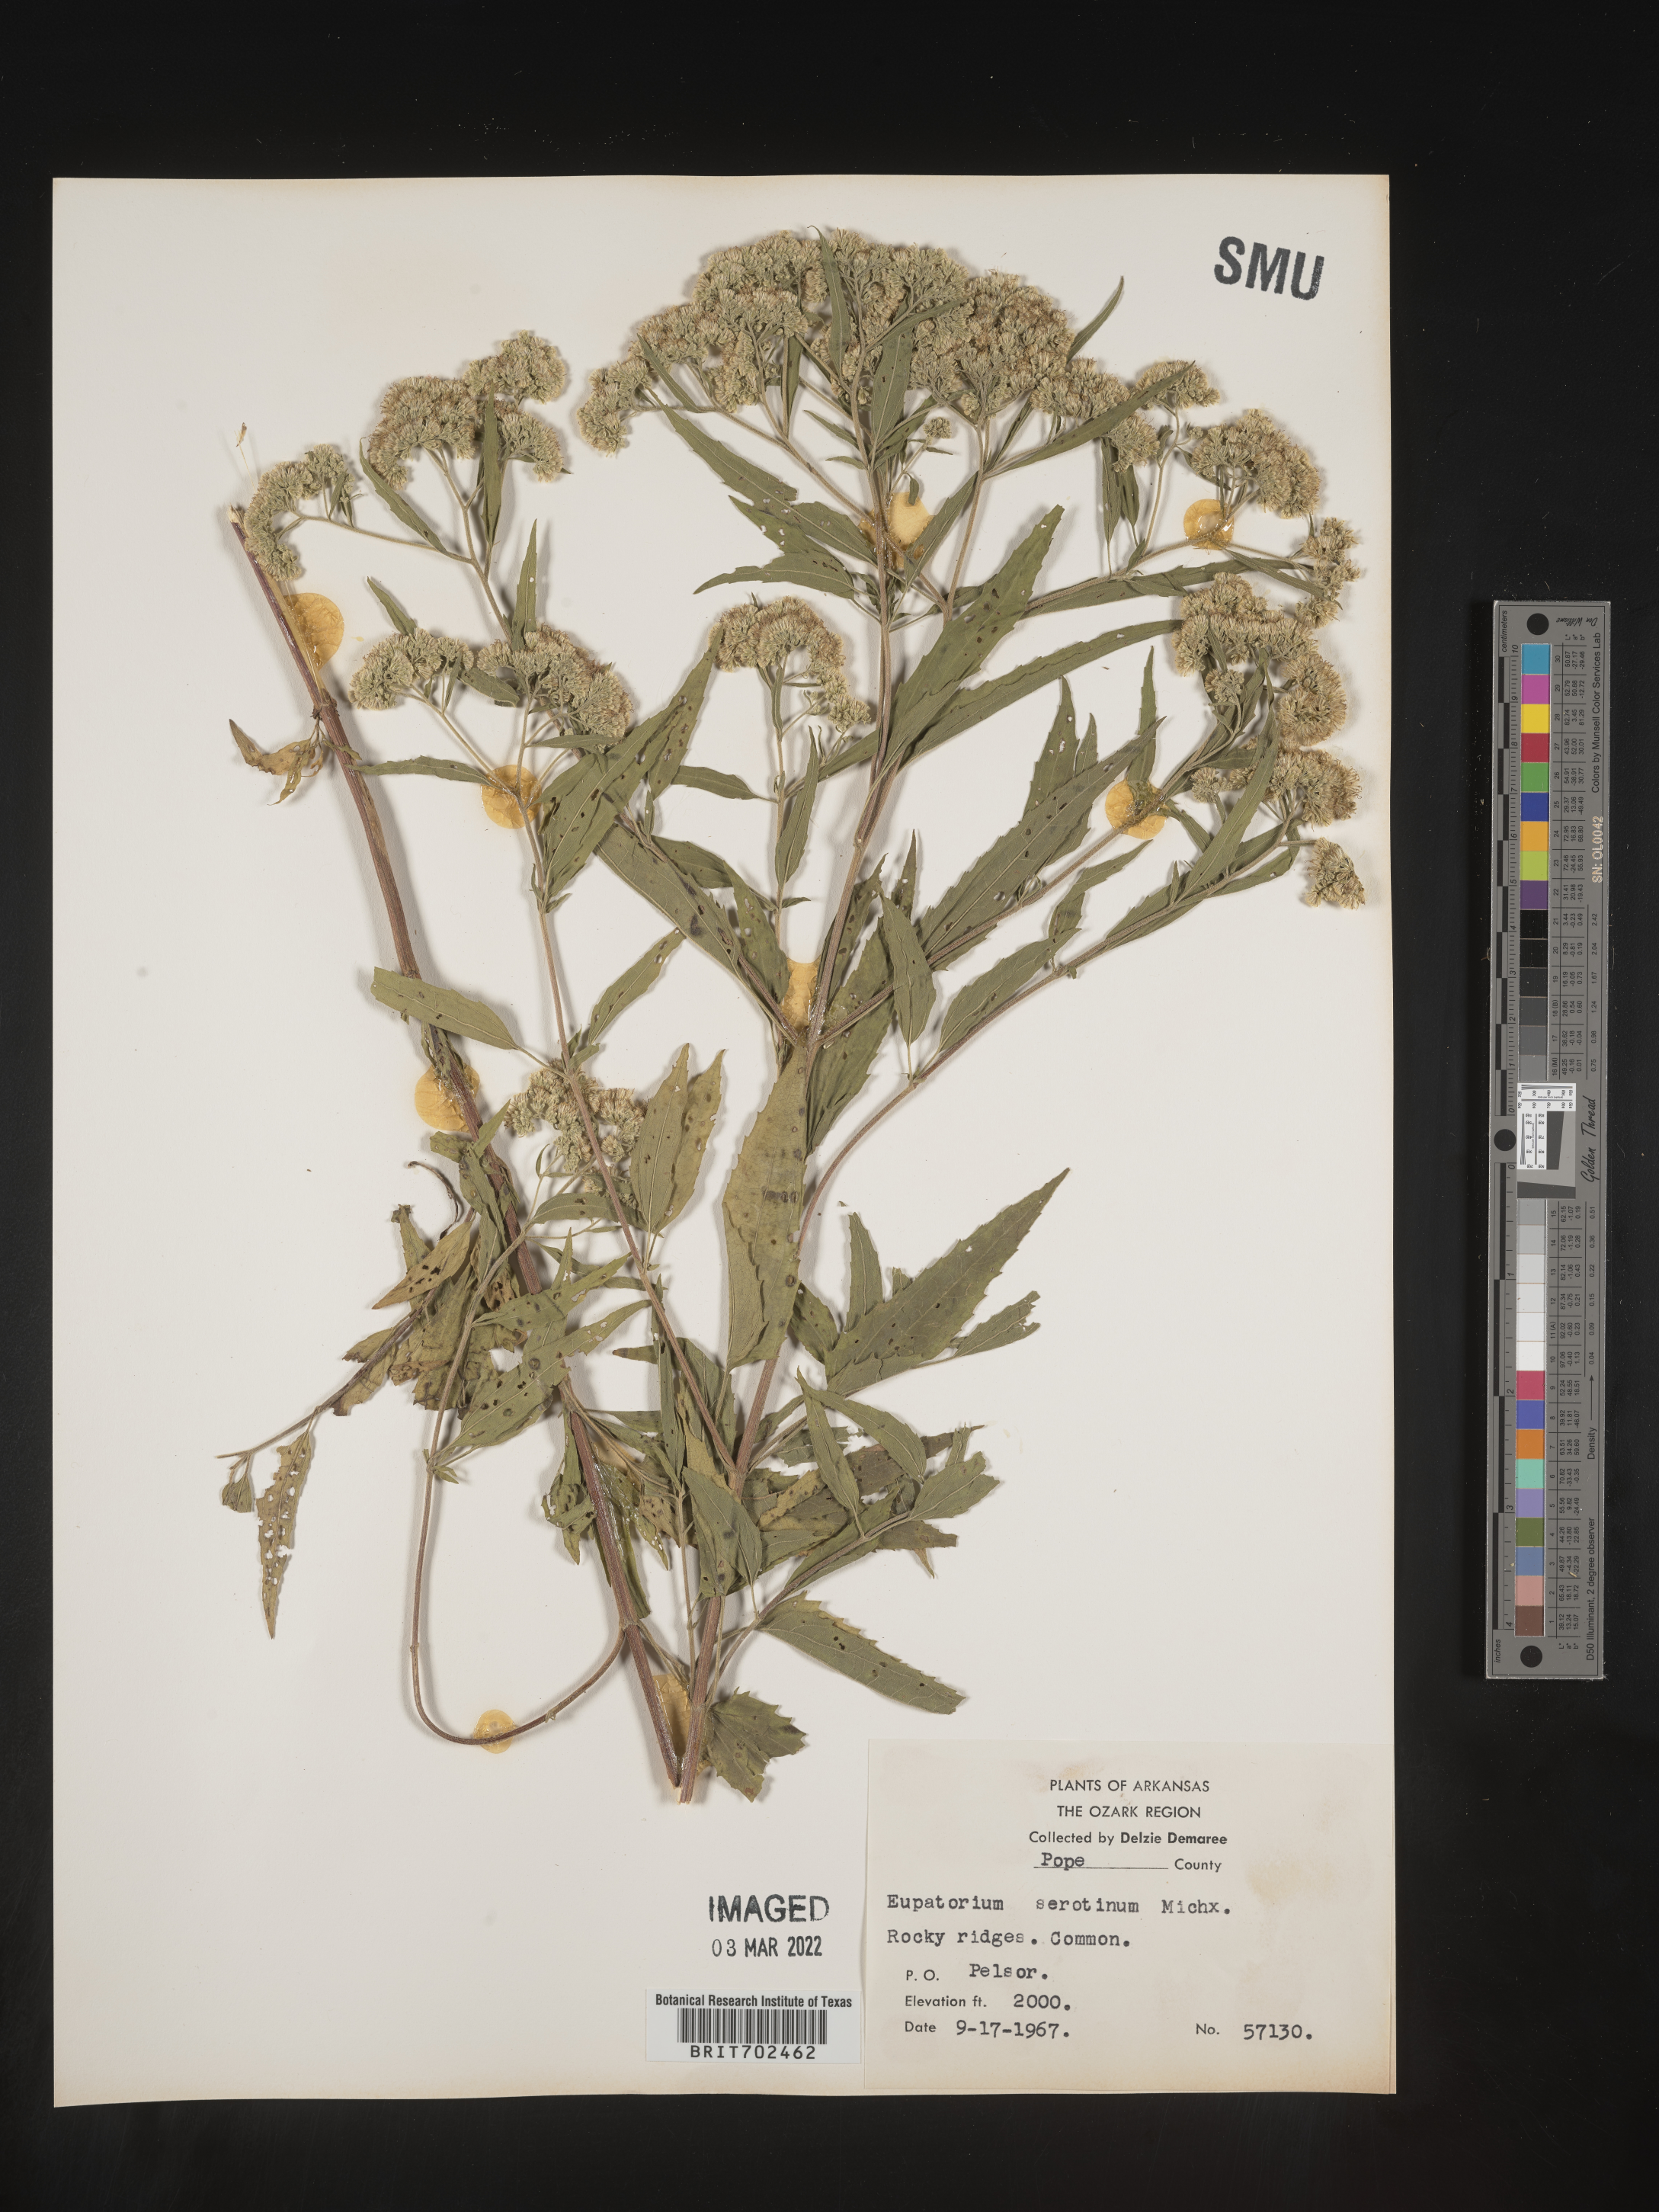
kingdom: Plantae
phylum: Tracheophyta
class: Magnoliopsida
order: Asterales
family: Asteraceae
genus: Eupatorium
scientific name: Eupatorium serotinum
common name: Late boneset
